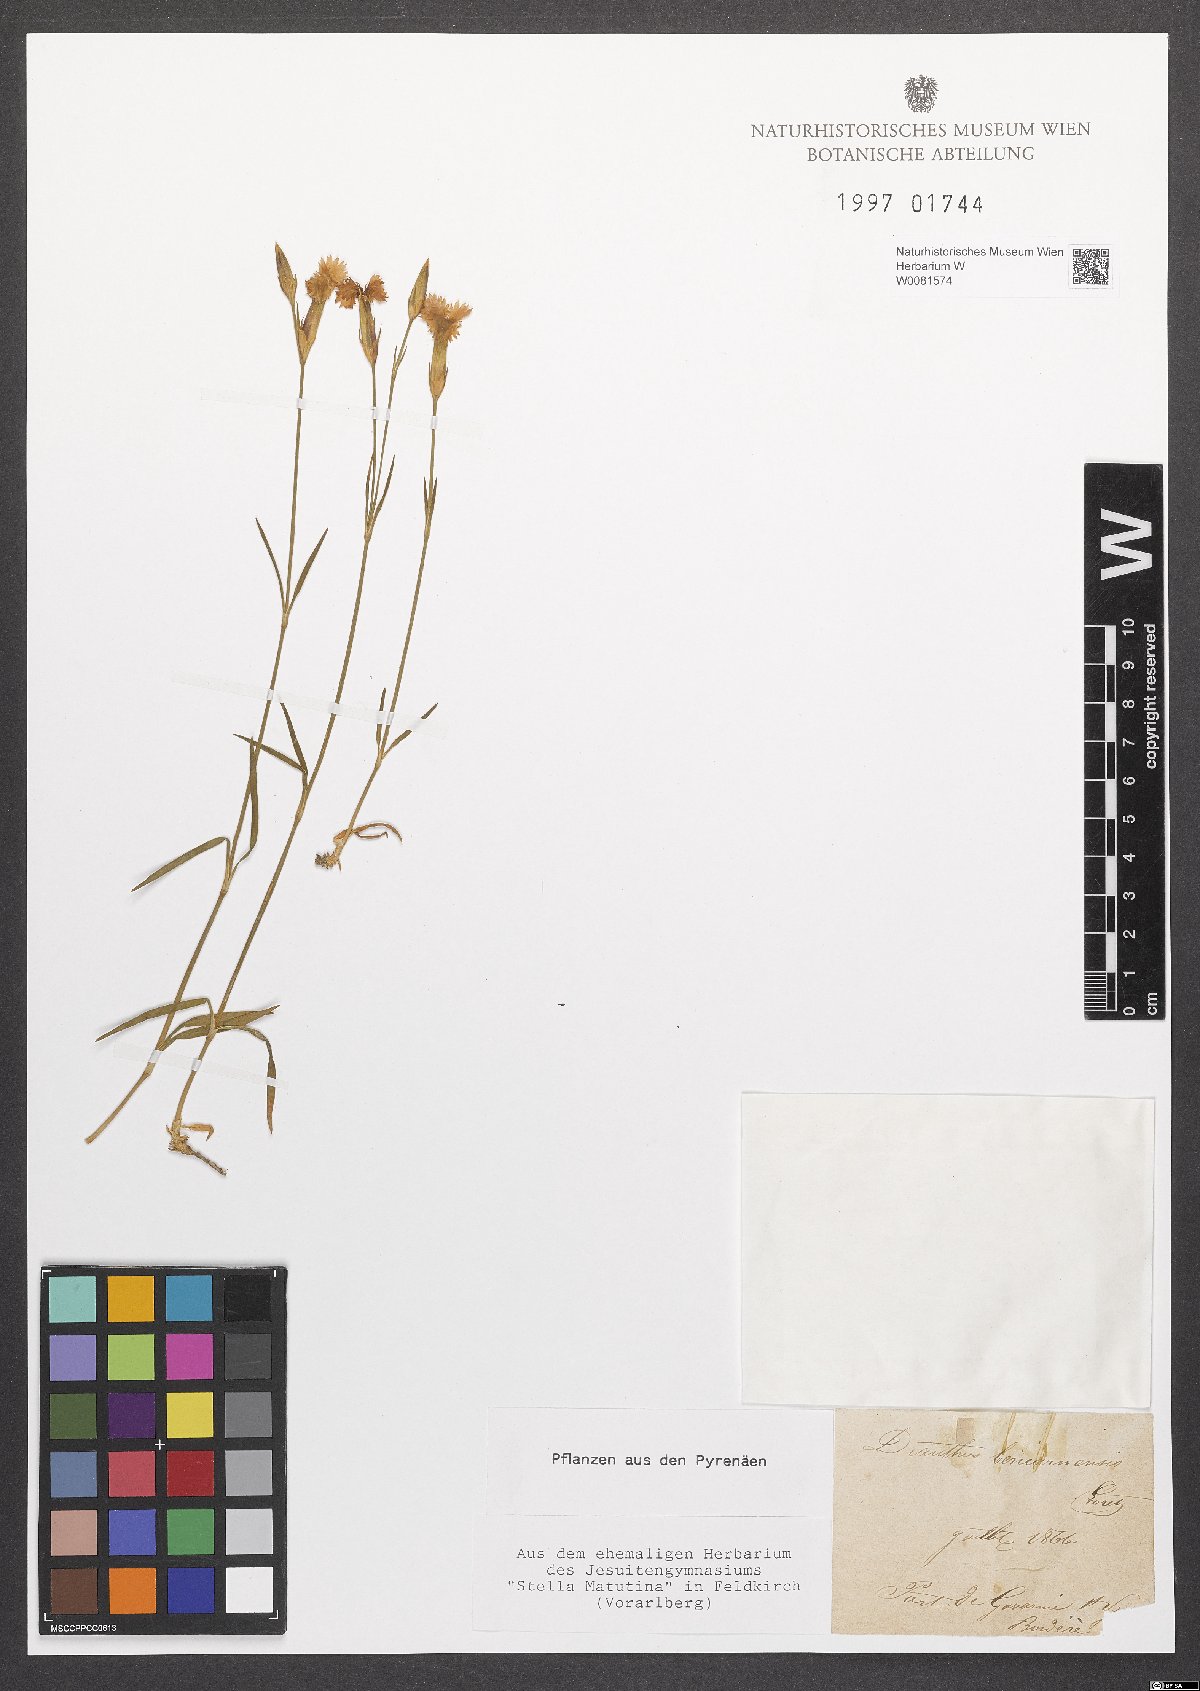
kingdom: Plantae
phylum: Tracheophyta
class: Magnoliopsida
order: Caryophyllales
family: Caryophyllaceae
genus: Dianthus
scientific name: Dianthus barbatus
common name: Sweet-william
